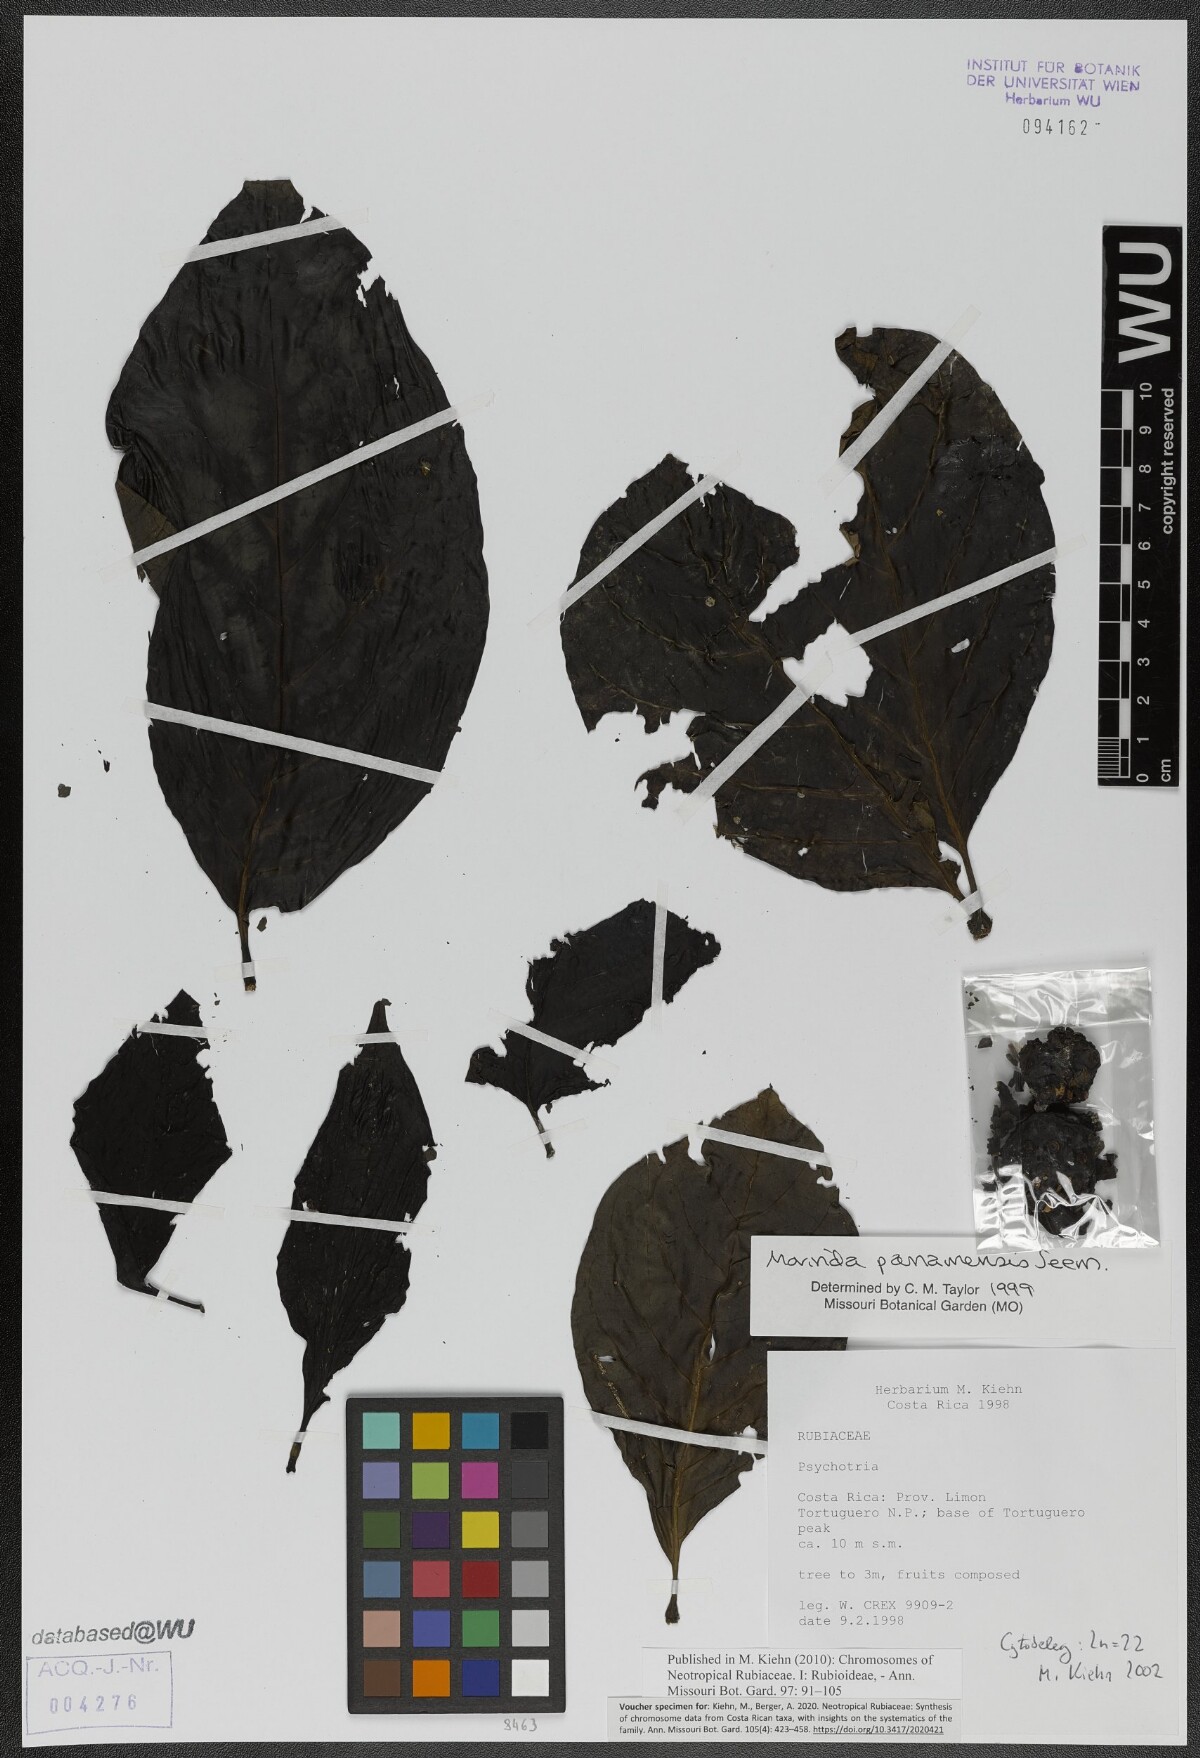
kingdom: Plantae
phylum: Tracheophyta
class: Magnoliopsida
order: Gentianales
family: Rubiaceae
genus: Morinda
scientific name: Morinda panamensis
